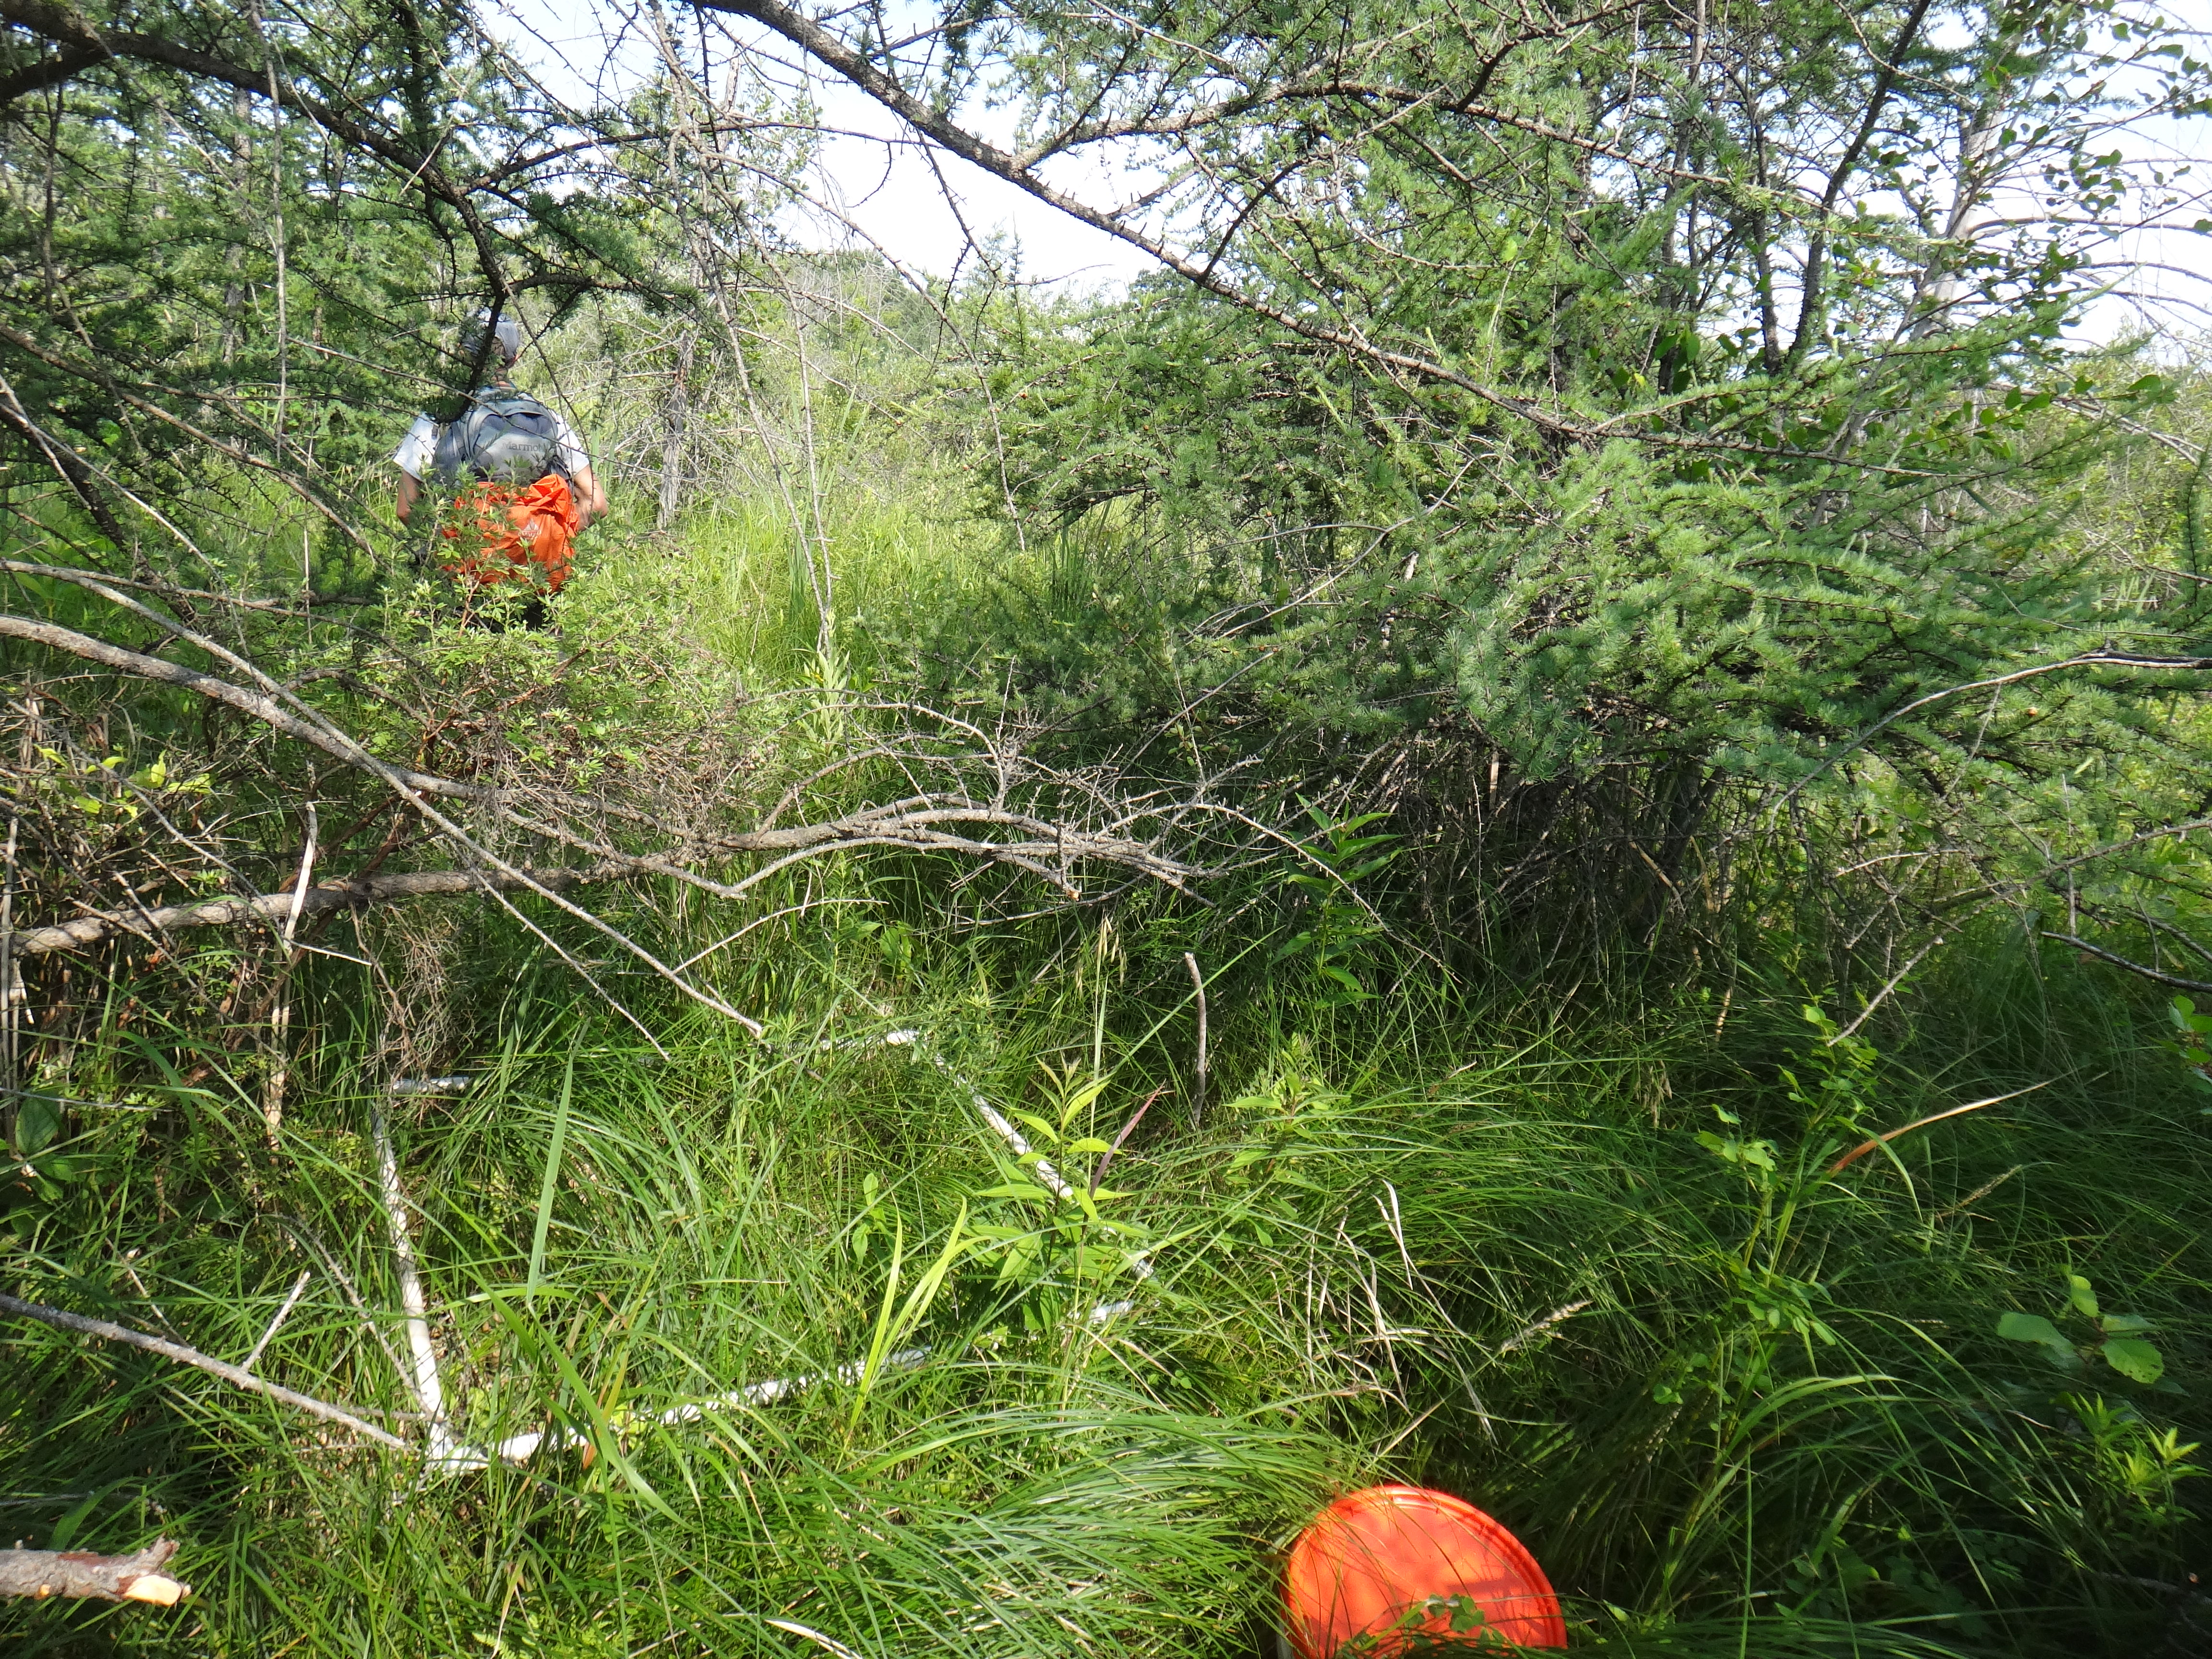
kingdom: Plantae
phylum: Tracheophyta
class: Magnoliopsida
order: Asterales
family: Asteraceae
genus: Symphyotrichum
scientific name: Symphyotrichum lanceolatum
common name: Panicled aster
